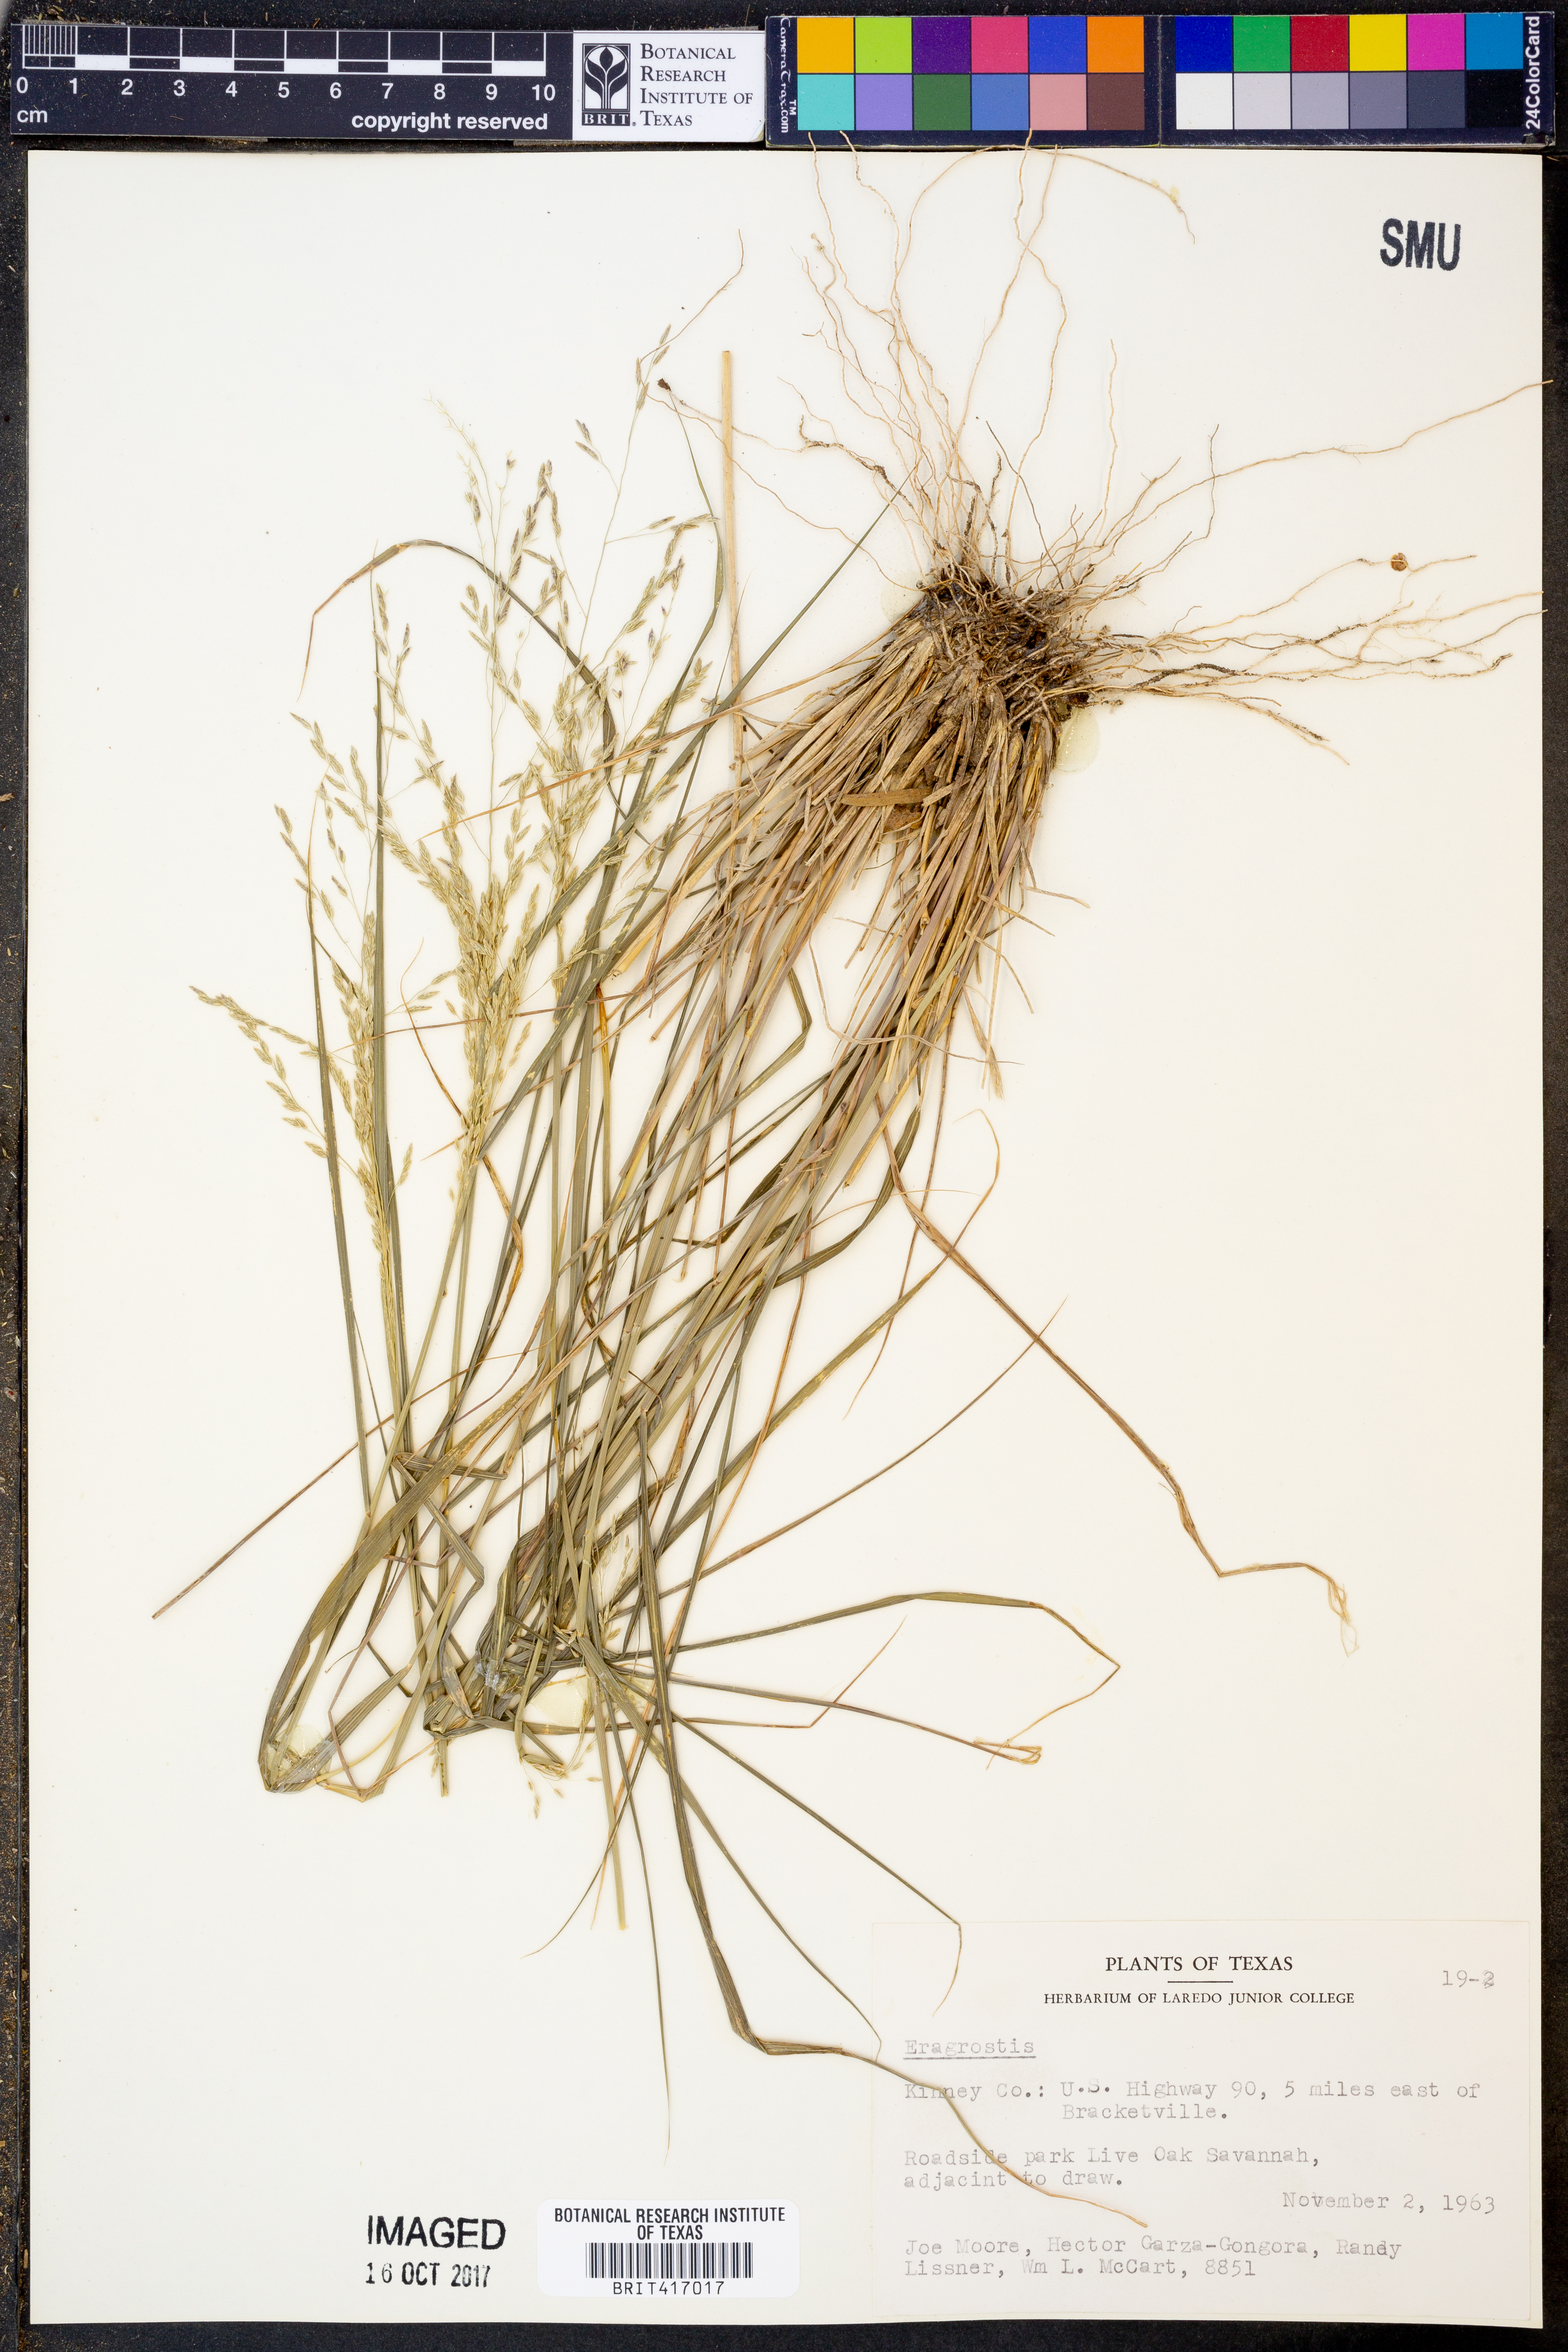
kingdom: Plantae
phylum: Tracheophyta
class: Liliopsida
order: Poales
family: Poaceae
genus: Eragrostis
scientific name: Eragrostis
